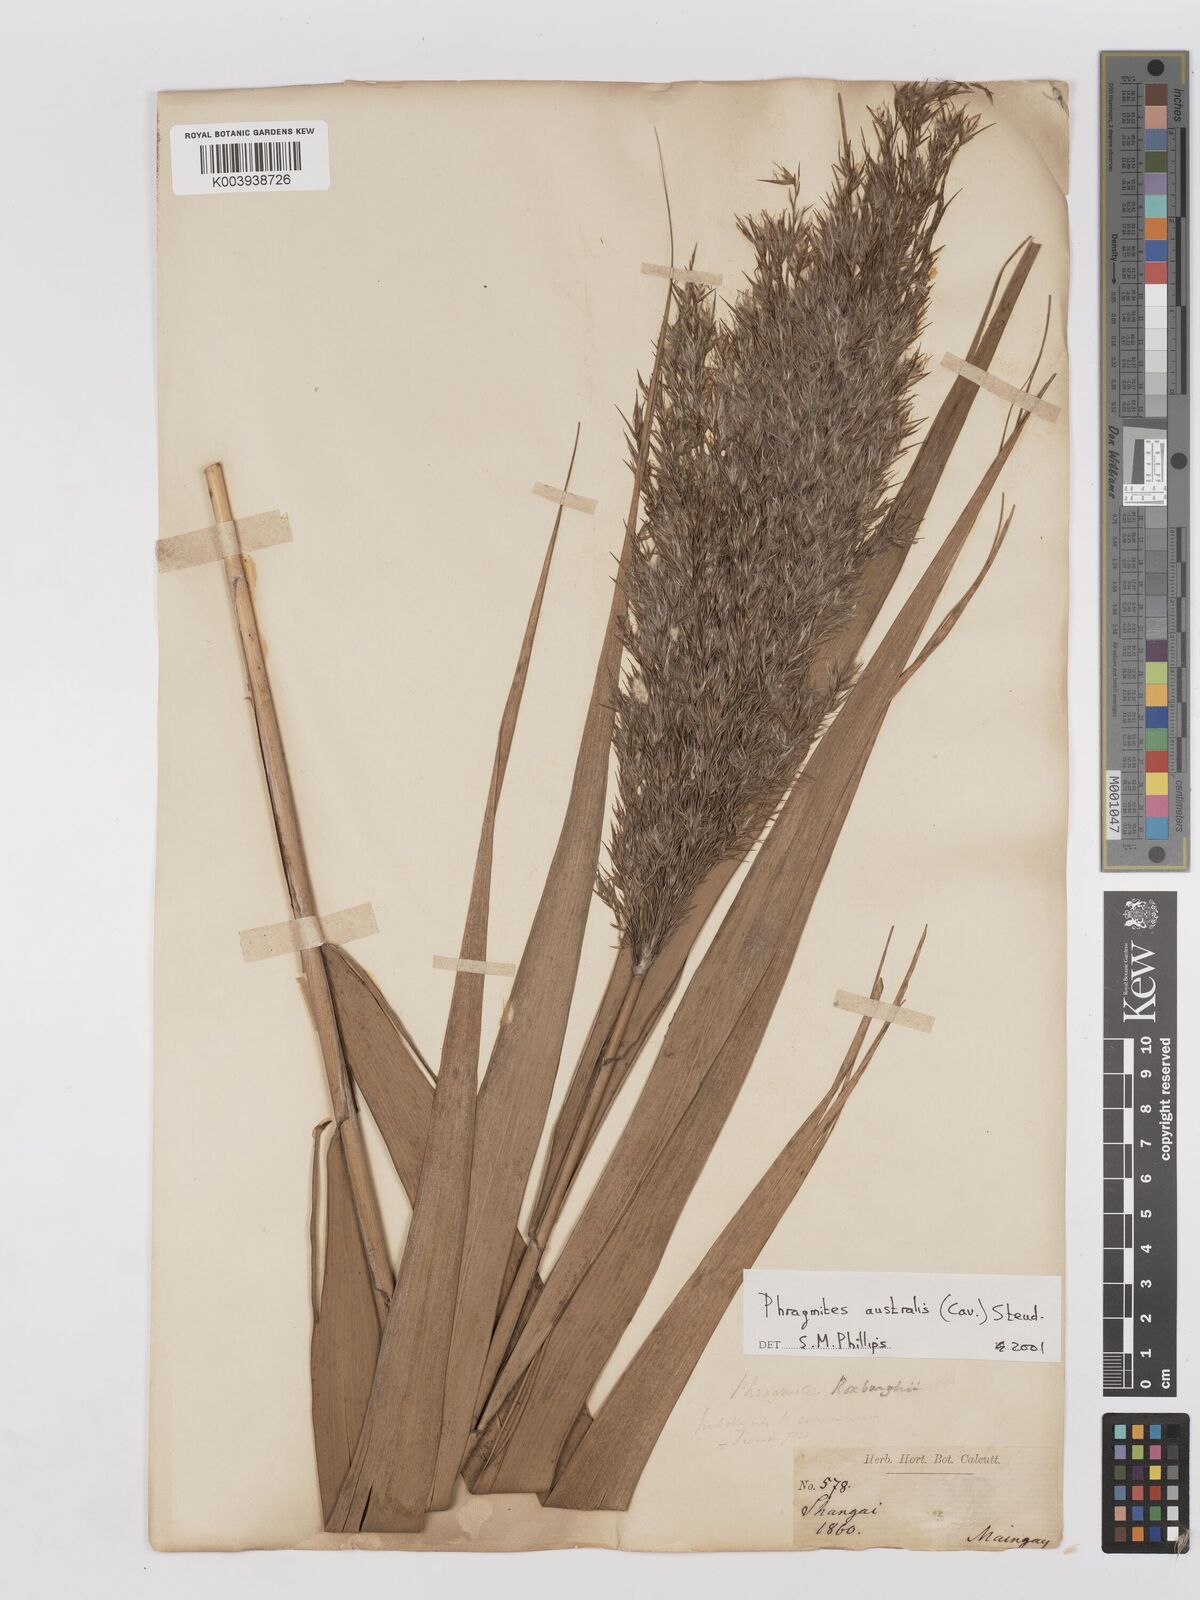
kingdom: Plantae
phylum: Tracheophyta
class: Liliopsida
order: Poales
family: Poaceae
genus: Phragmites
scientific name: Phragmites australis
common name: Common reed
